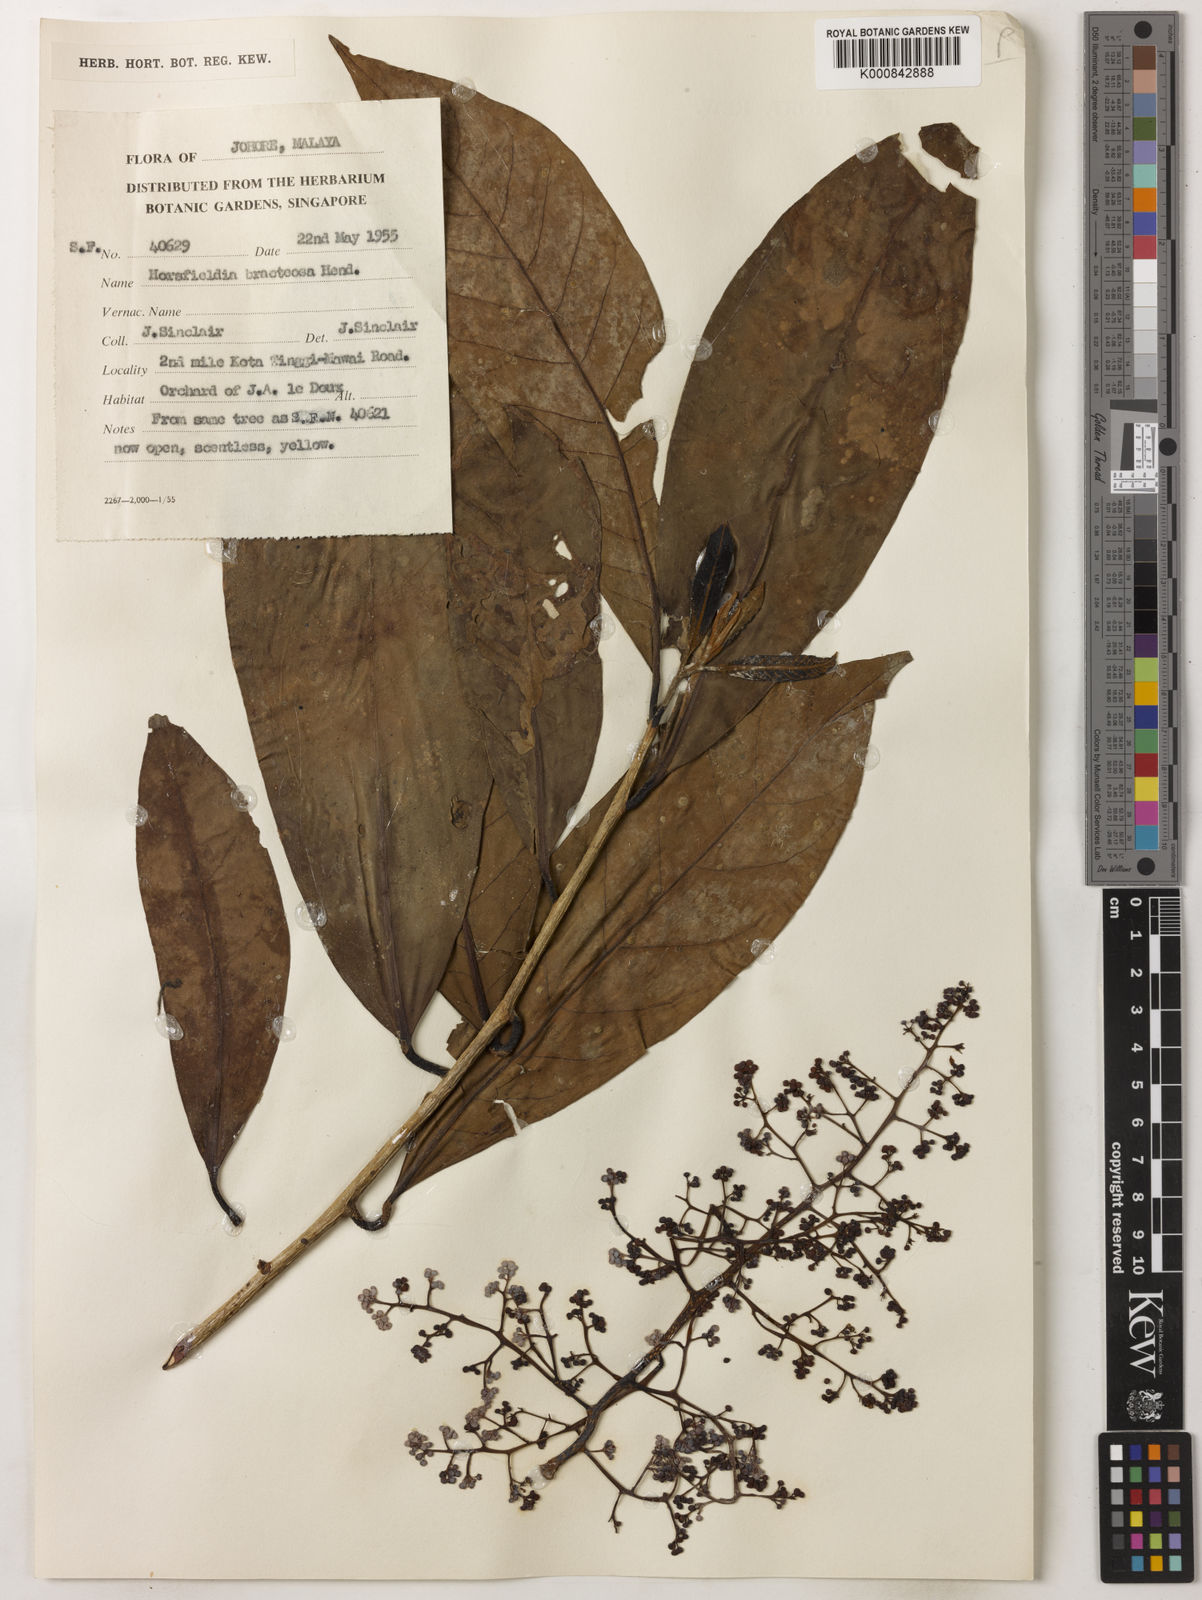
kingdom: Plantae
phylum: Tracheophyta
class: Magnoliopsida
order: Magnoliales
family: Myristicaceae
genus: Horsfieldia
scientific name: Horsfieldia sucosa
